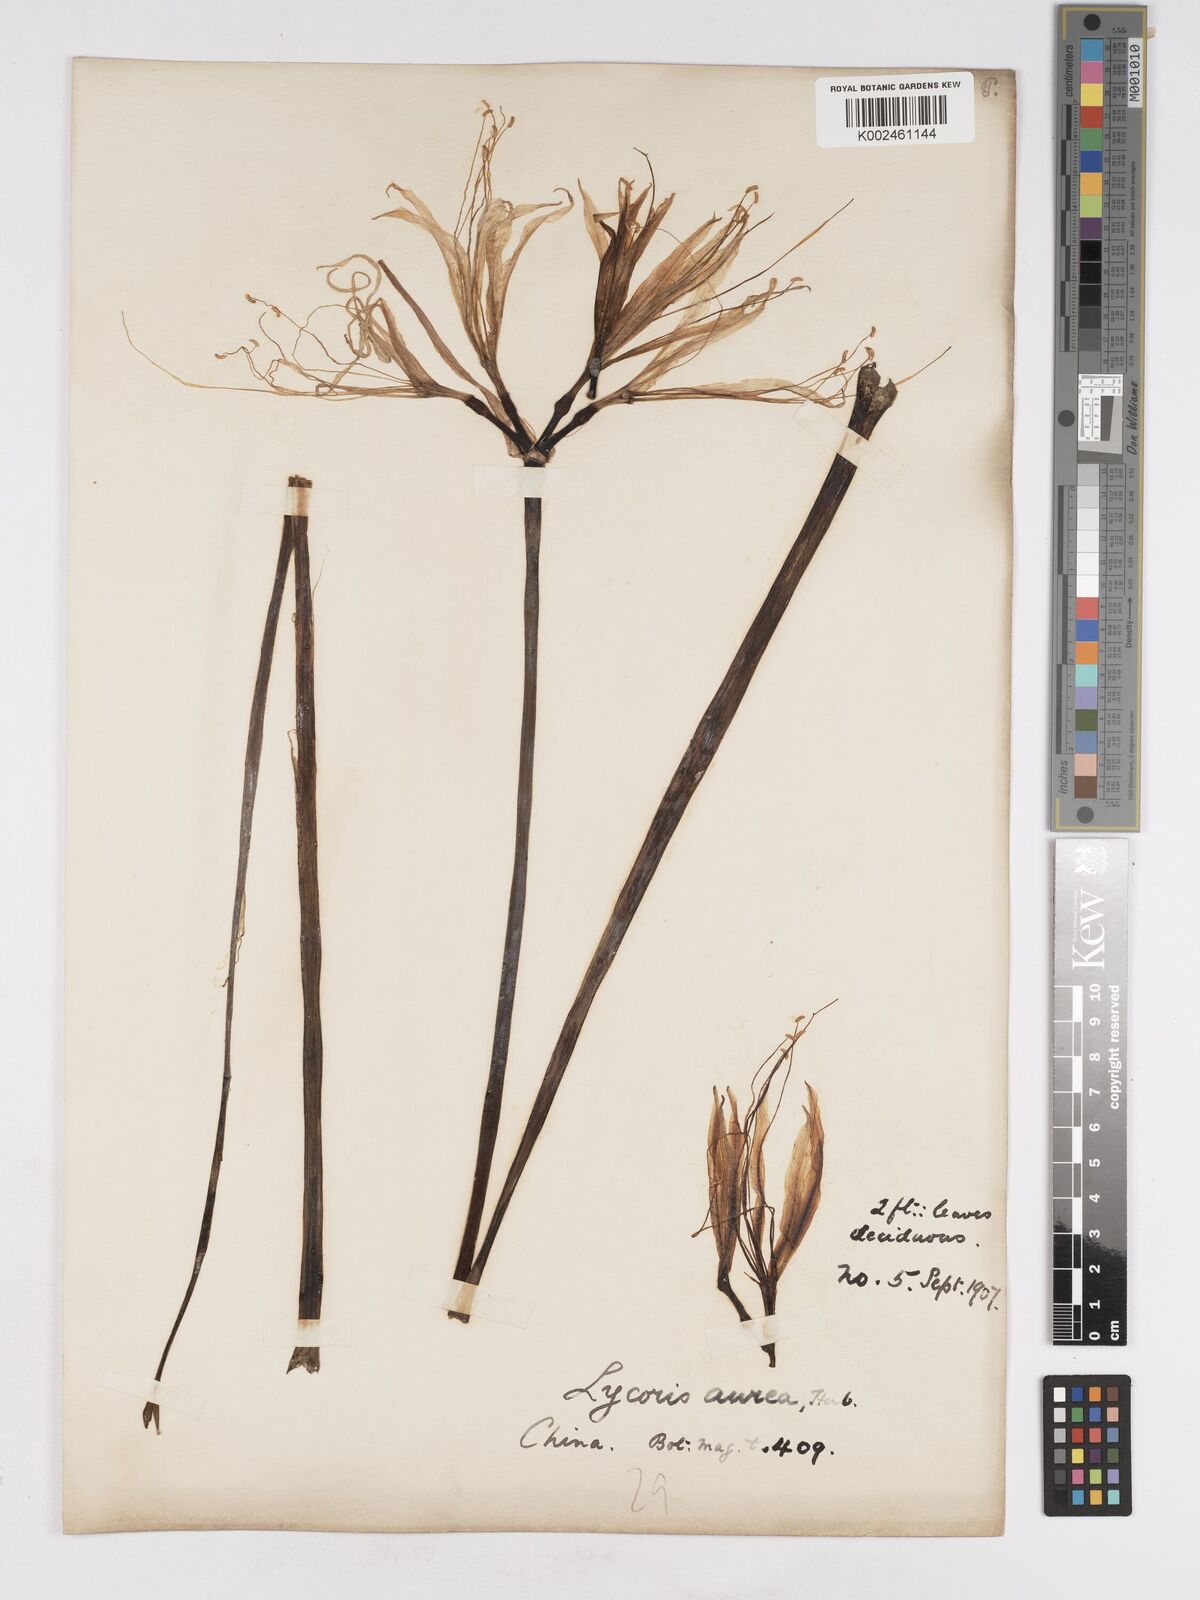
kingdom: Plantae
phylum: Tracheophyta
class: Liliopsida
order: Asparagales
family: Amaryllidaceae
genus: Lycoris
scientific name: Lycoris aurea
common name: Golden hurricane-lily
